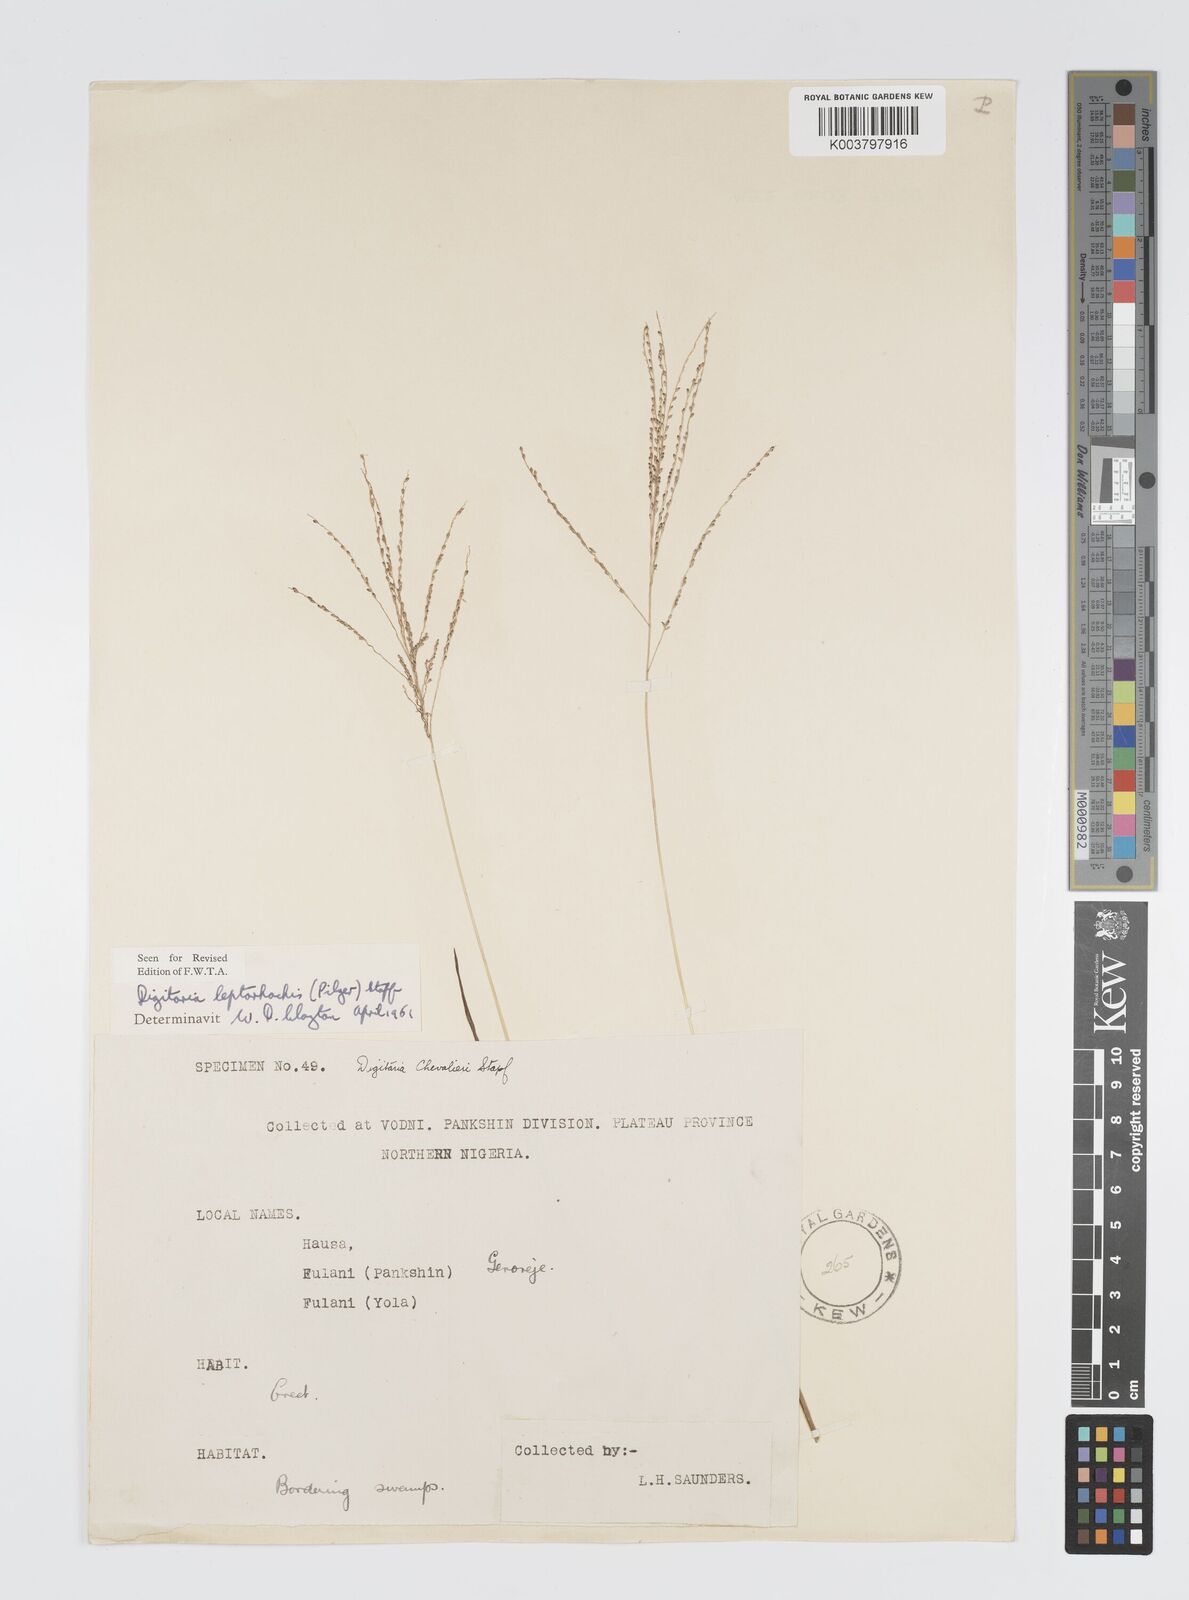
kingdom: Plantae
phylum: Tracheophyta
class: Liliopsida
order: Poales
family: Poaceae
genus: Digitaria
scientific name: Digitaria leptorhachis
